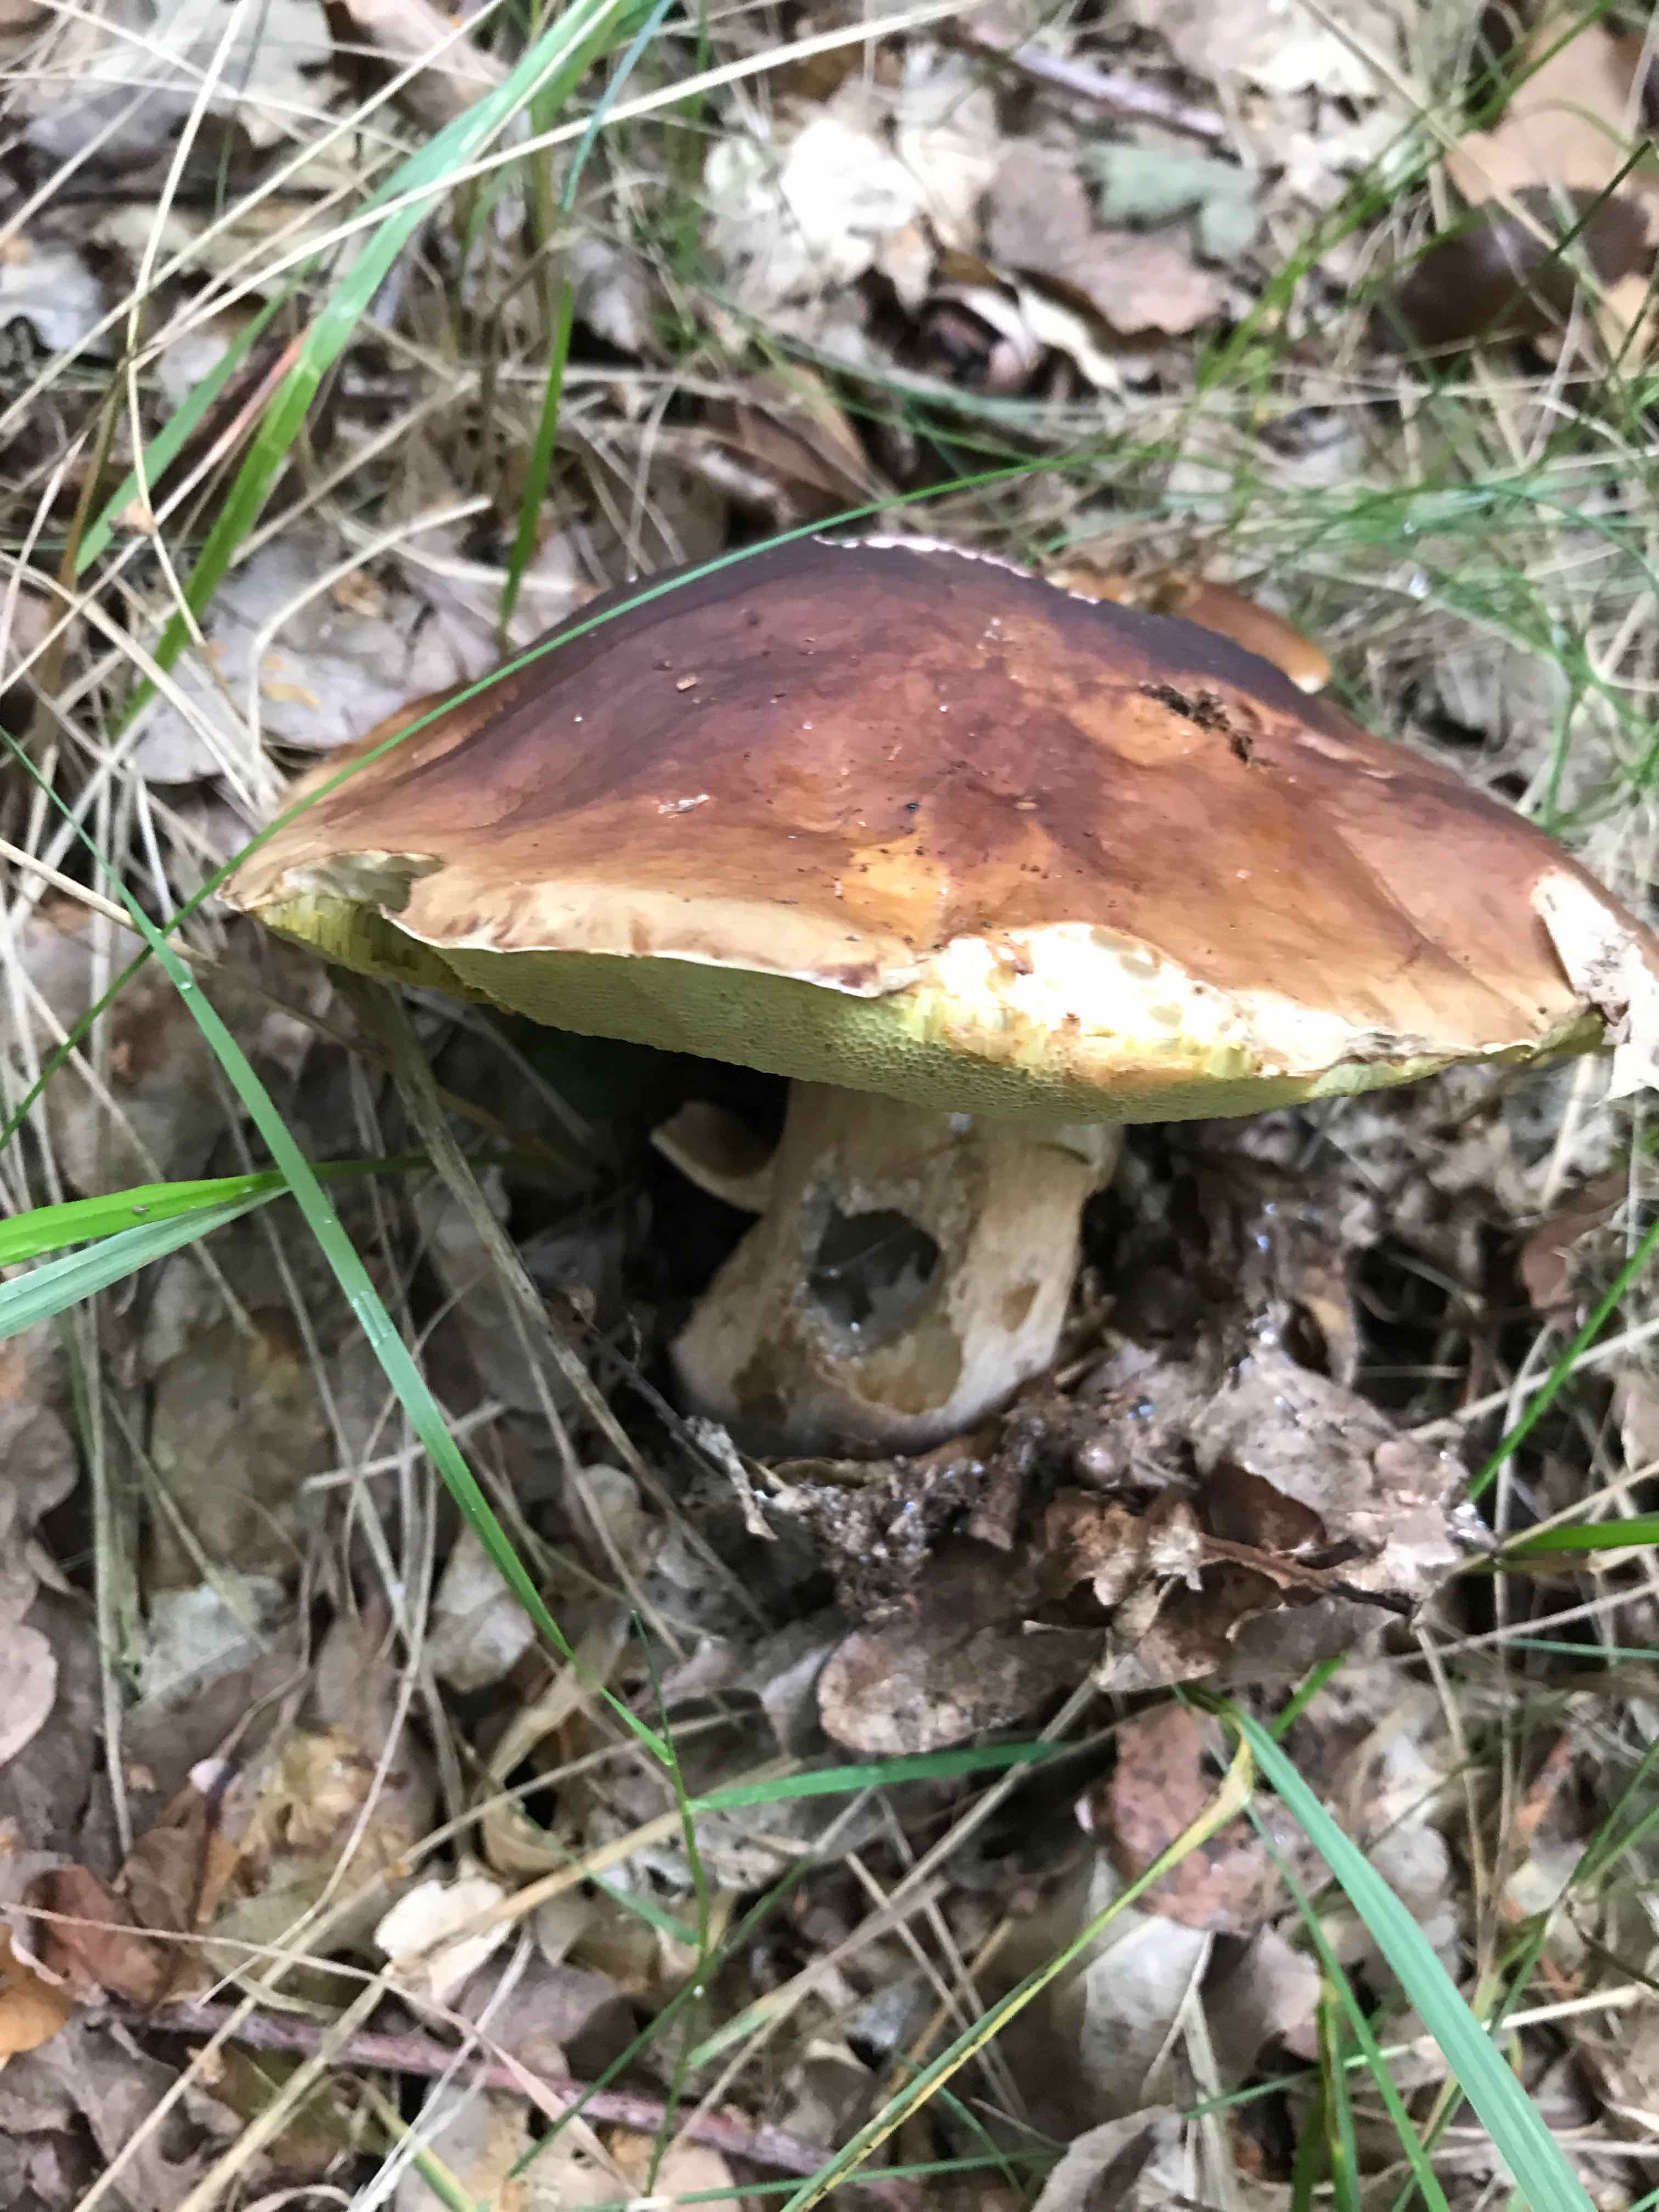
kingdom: Fungi
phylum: Basidiomycota
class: Agaricomycetes
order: Boletales
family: Boletaceae
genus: Boletus
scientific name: Boletus edulis
